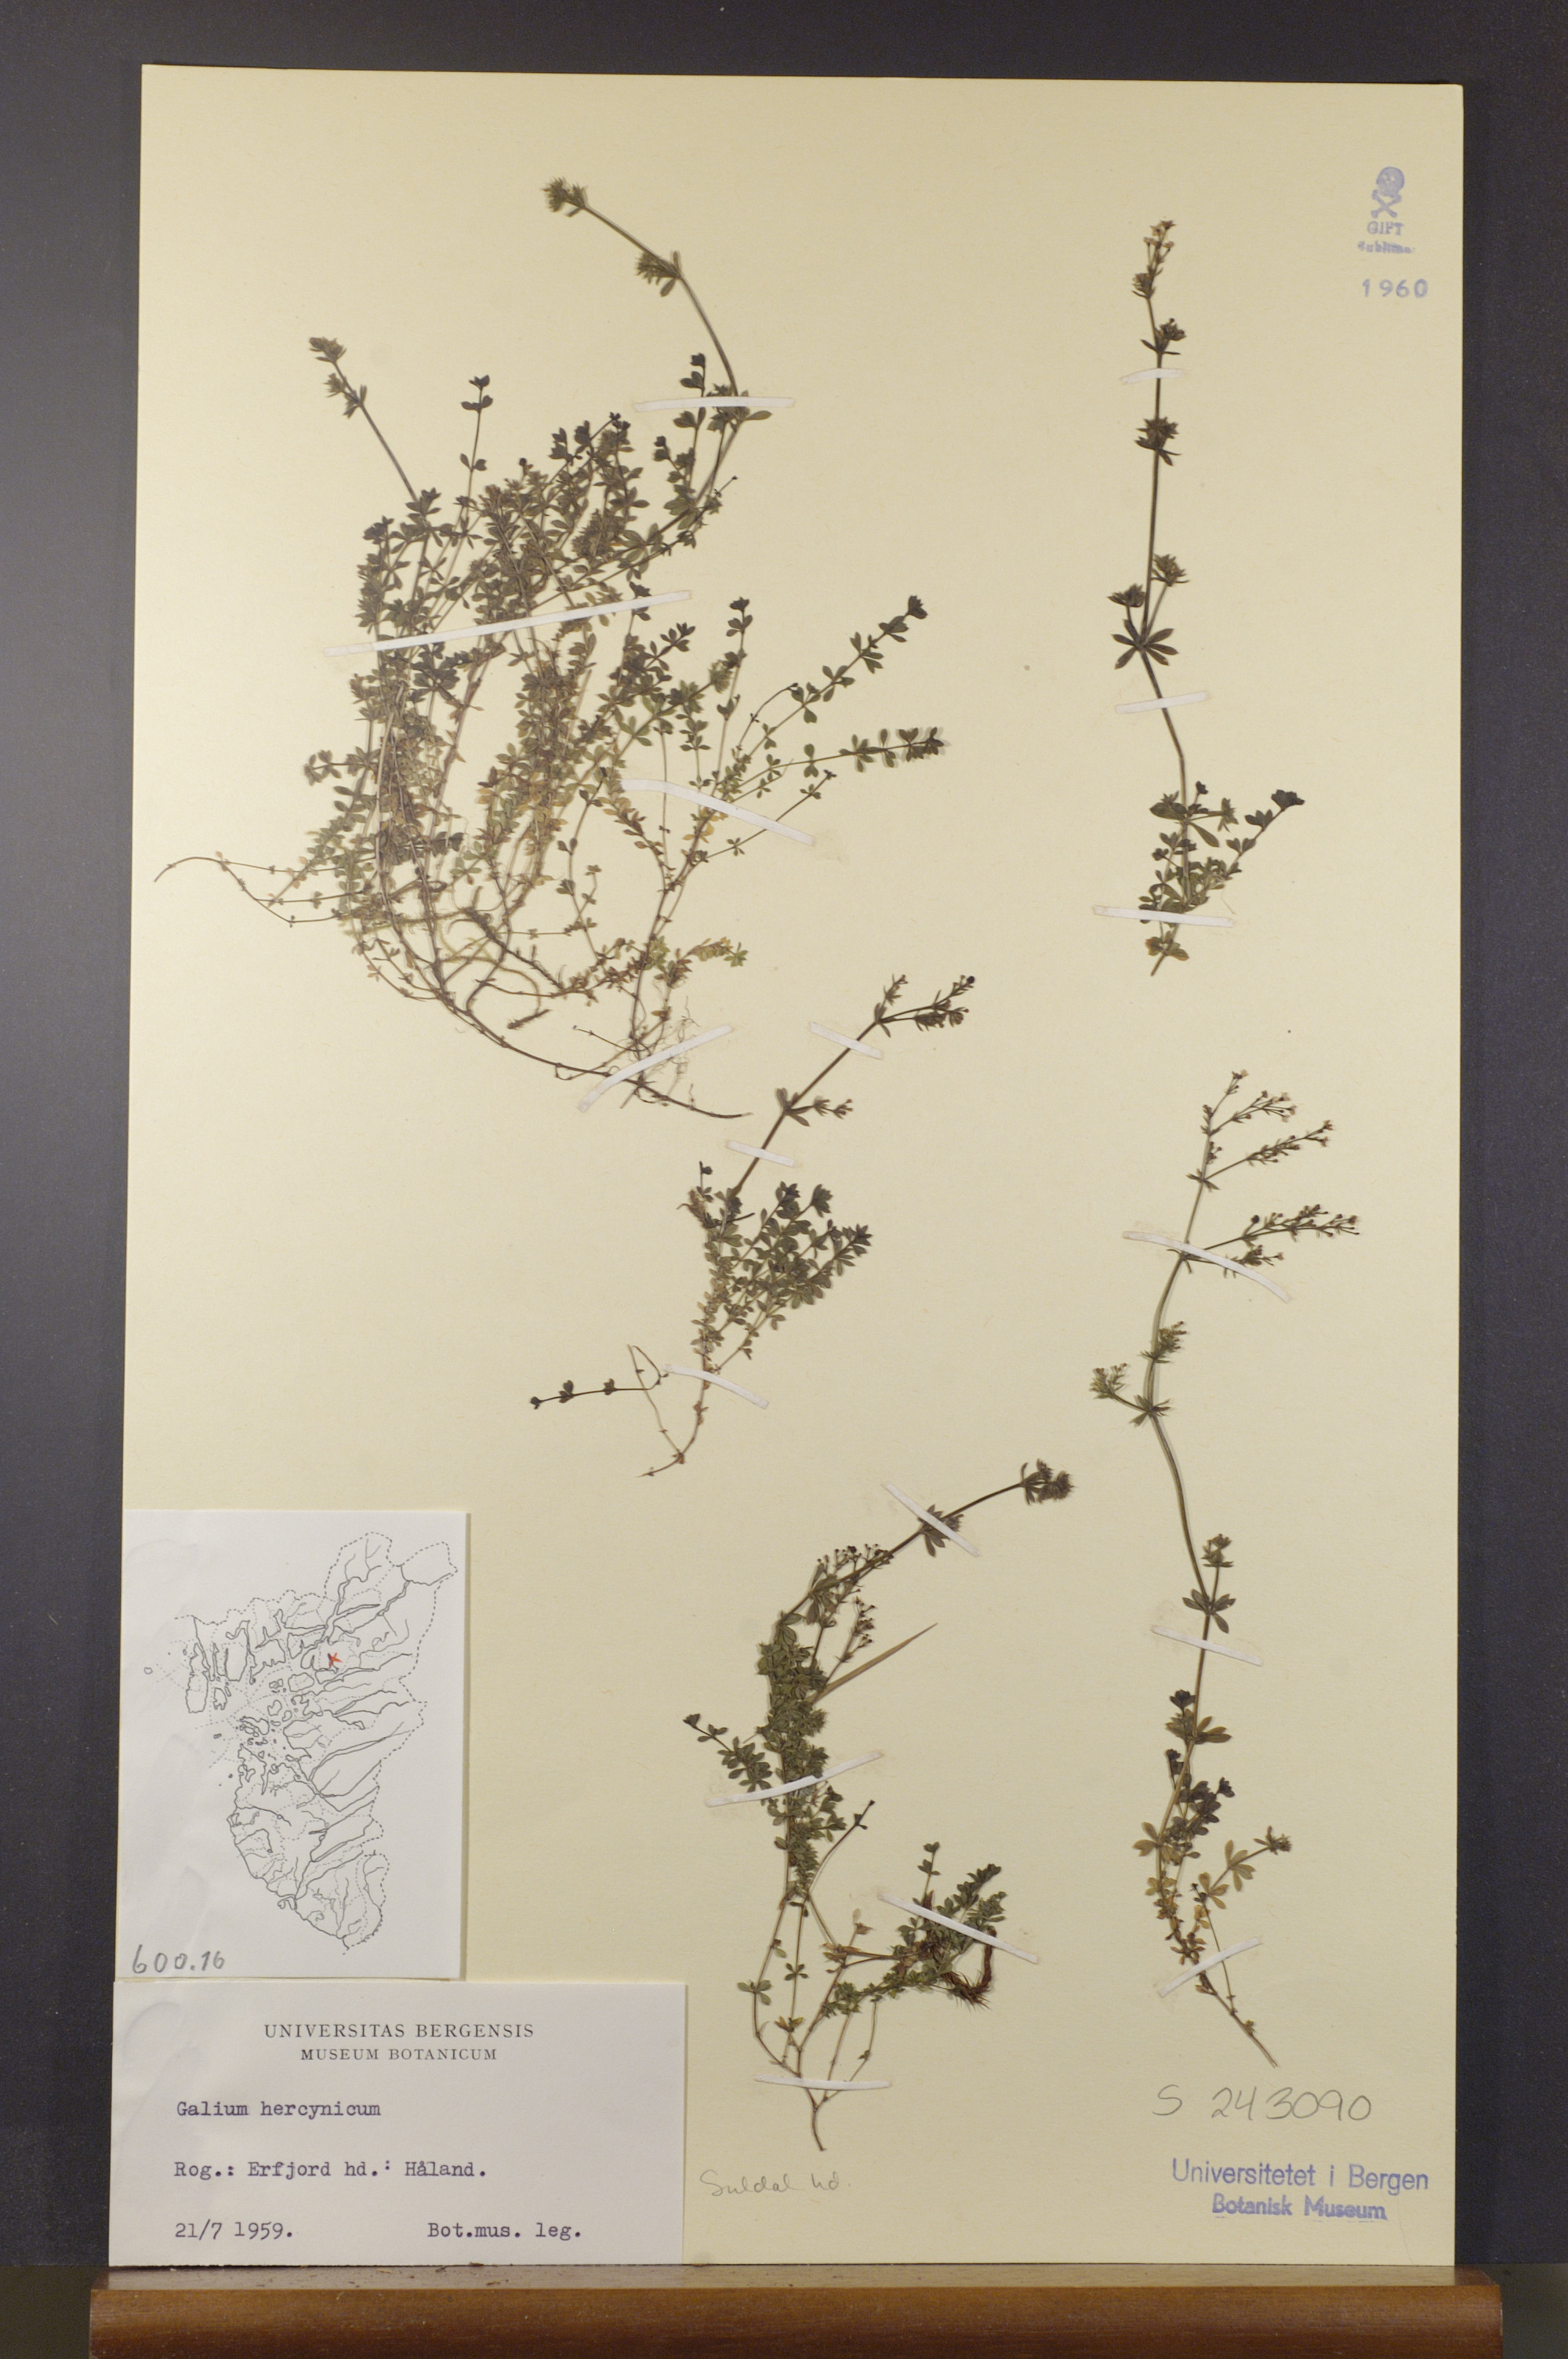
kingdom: Plantae
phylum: Tracheophyta
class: Magnoliopsida
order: Gentianales
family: Rubiaceae
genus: Galium
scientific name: Galium saxatile
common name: Heath bedstraw
